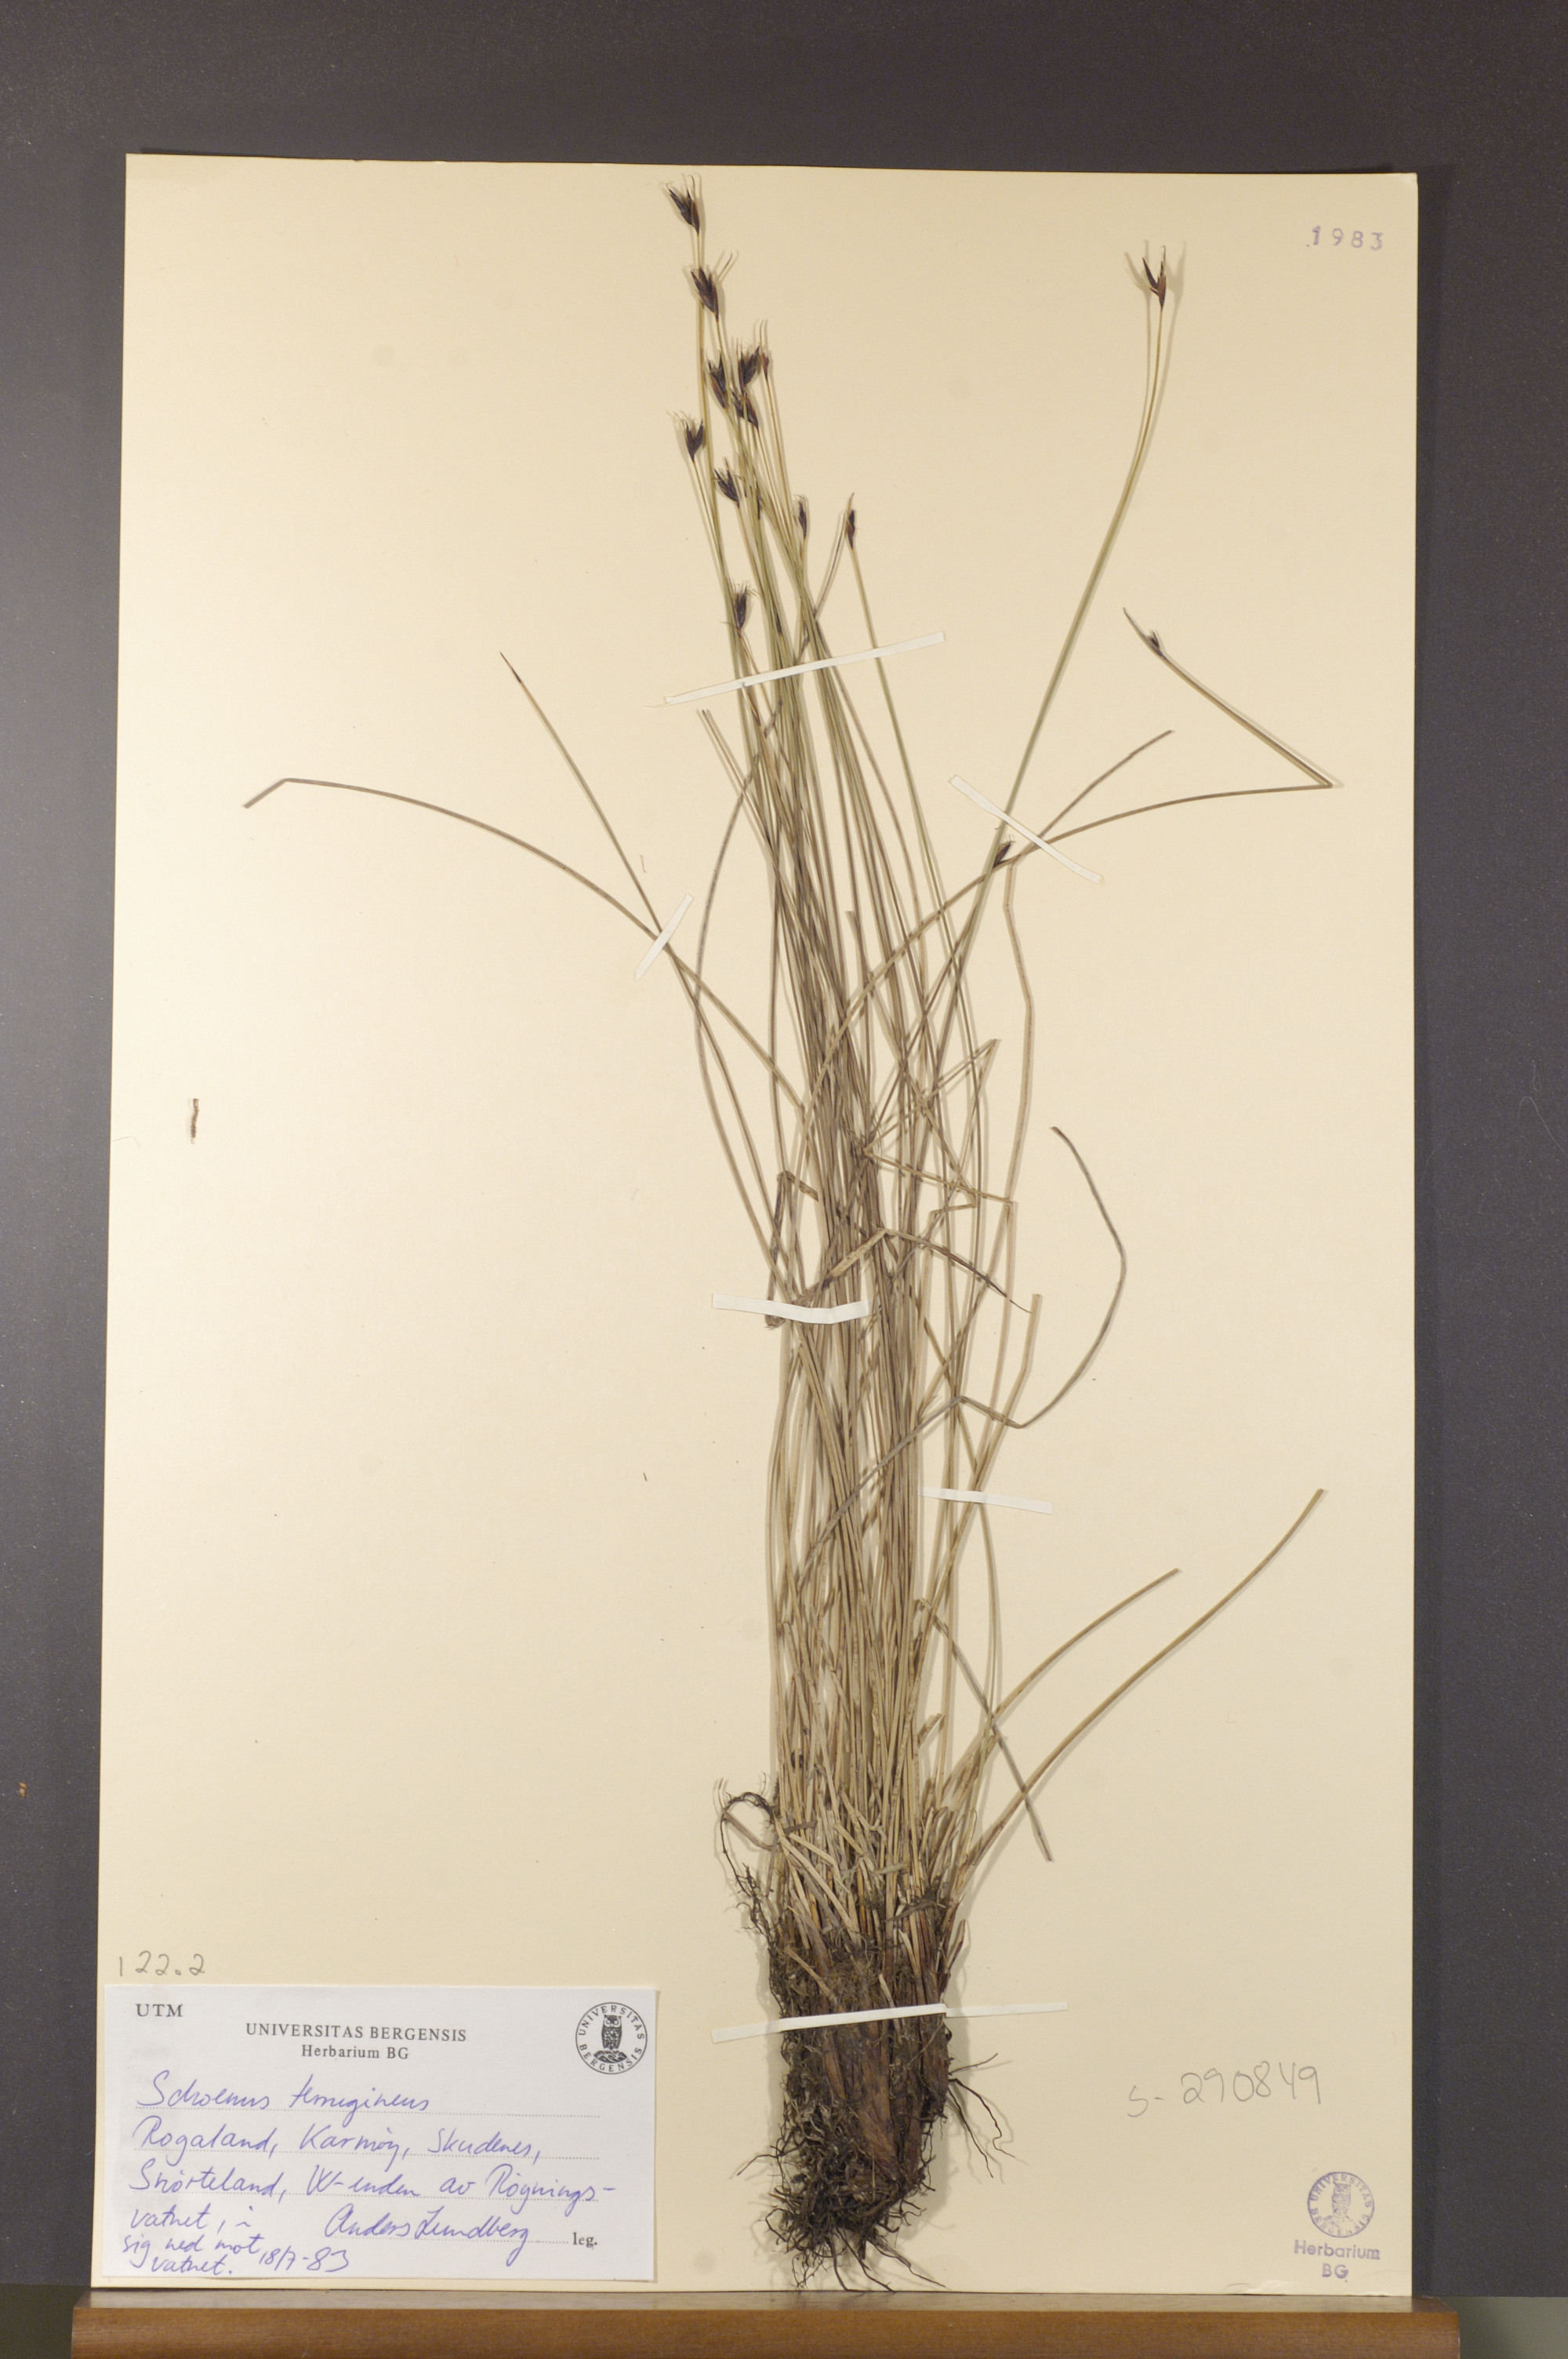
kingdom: Plantae
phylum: Tracheophyta
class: Liliopsida
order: Poales
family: Cyperaceae
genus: Schoenus
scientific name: Schoenus ferrugineus
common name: Brown bog-rush
